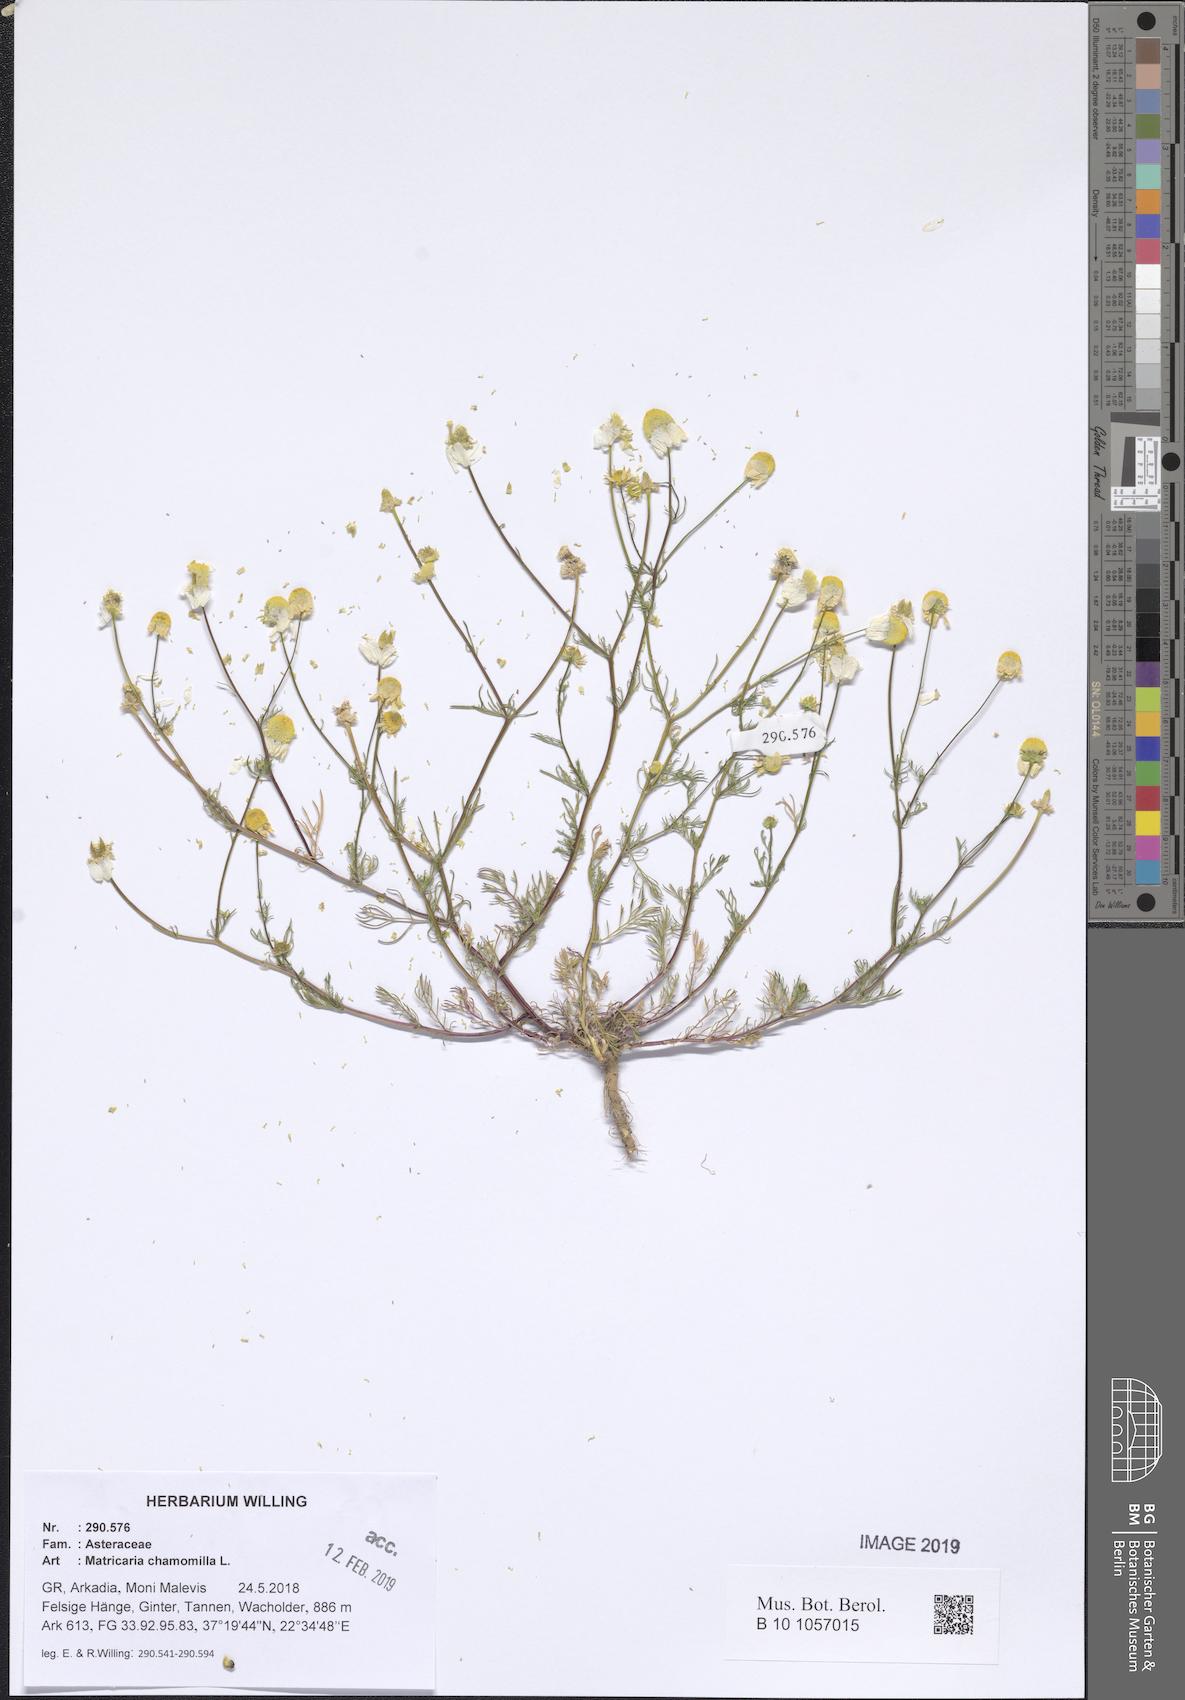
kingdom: Plantae
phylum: Tracheophyta
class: Magnoliopsida
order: Asterales
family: Asteraceae
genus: Matricaria
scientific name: Matricaria chamomilla
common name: Scented mayweed
